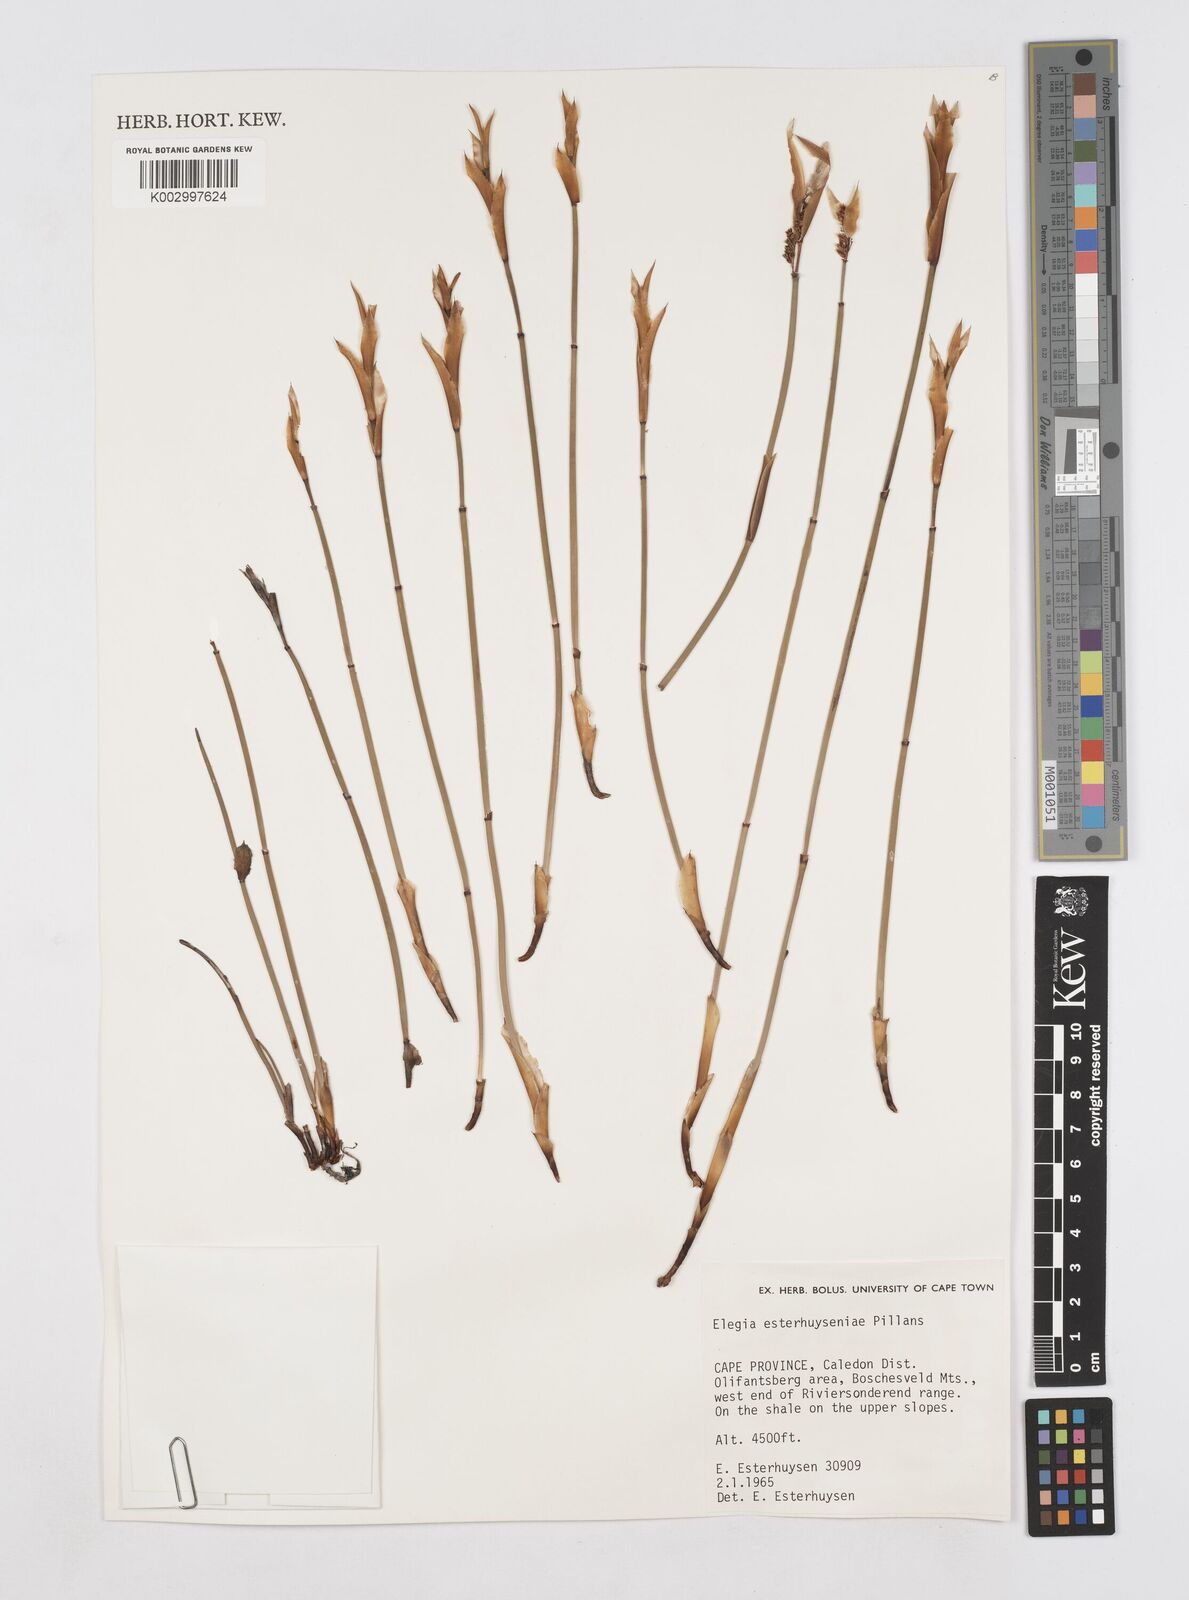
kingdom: Plantae
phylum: Tracheophyta
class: Liliopsida
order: Poales
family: Restionaceae
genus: Elegia
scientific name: Elegia esterhuyseniae
